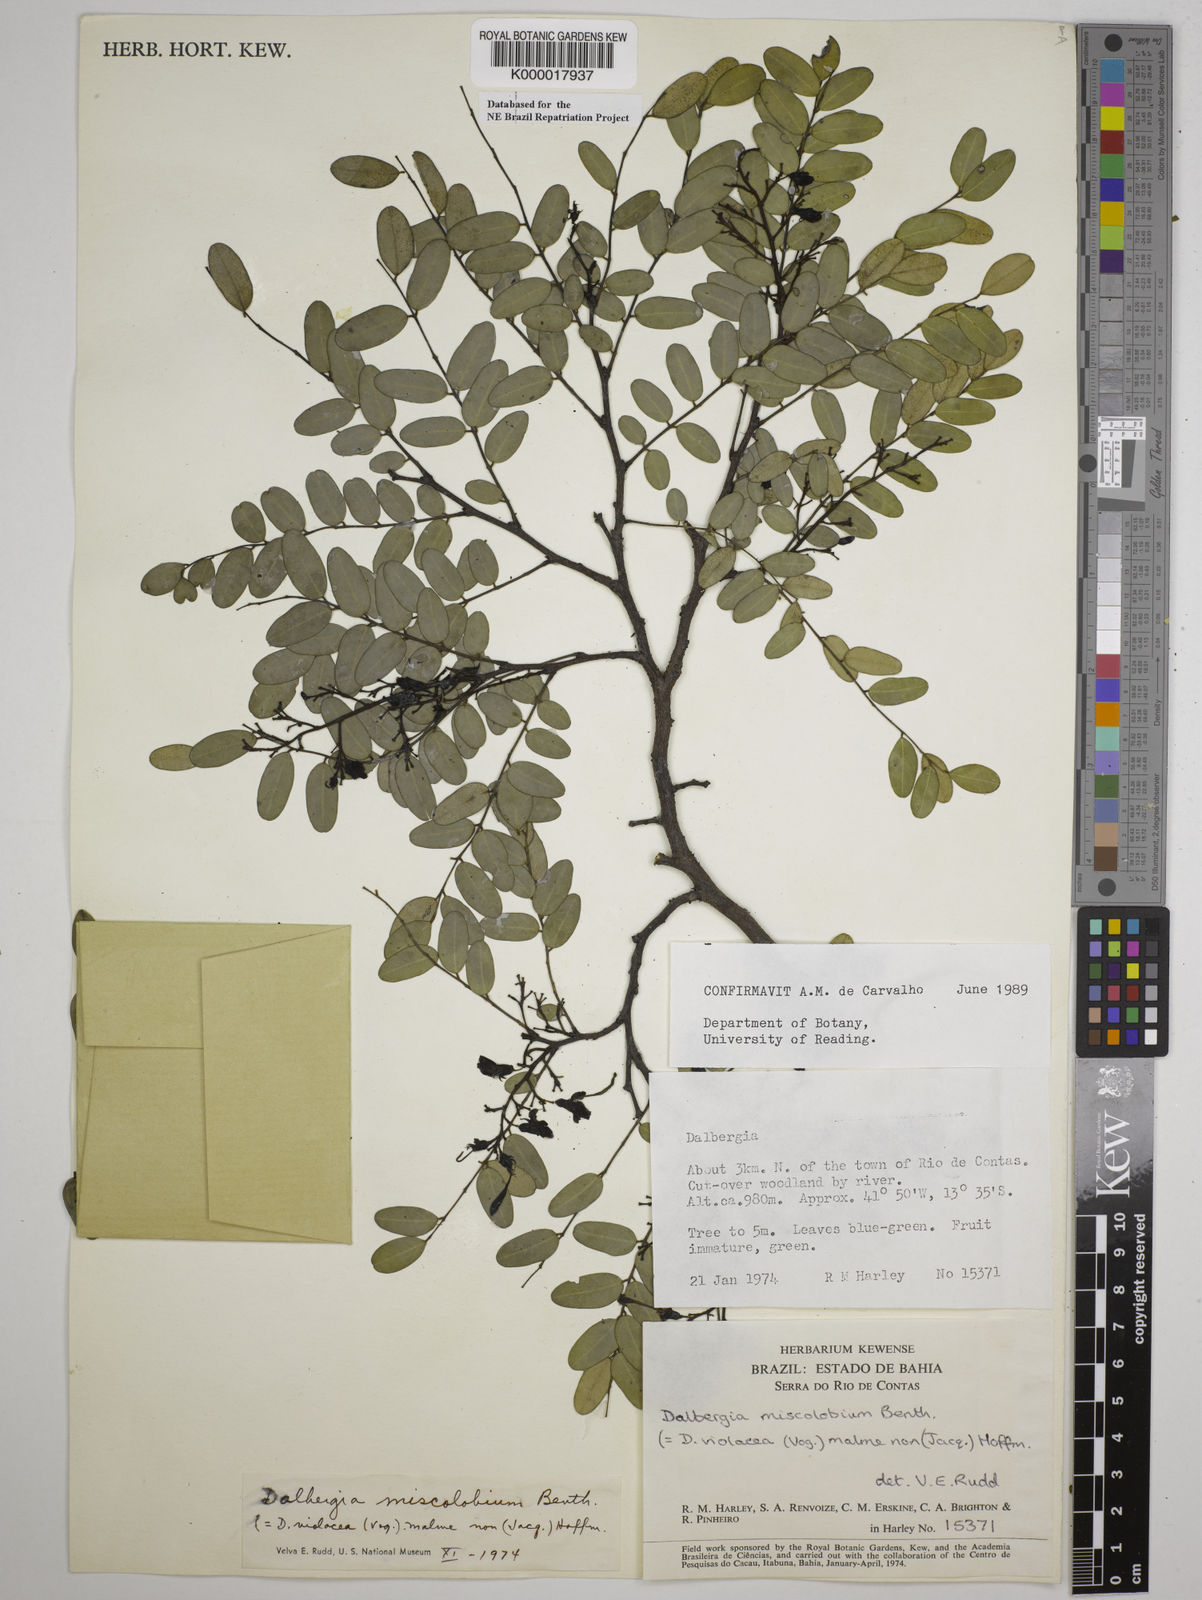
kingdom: Plantae
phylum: Tracheophyta
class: Magnoliopsida
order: Fabales
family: Fabaceae
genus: Dalbergia
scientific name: Dalbergia miscolobium
